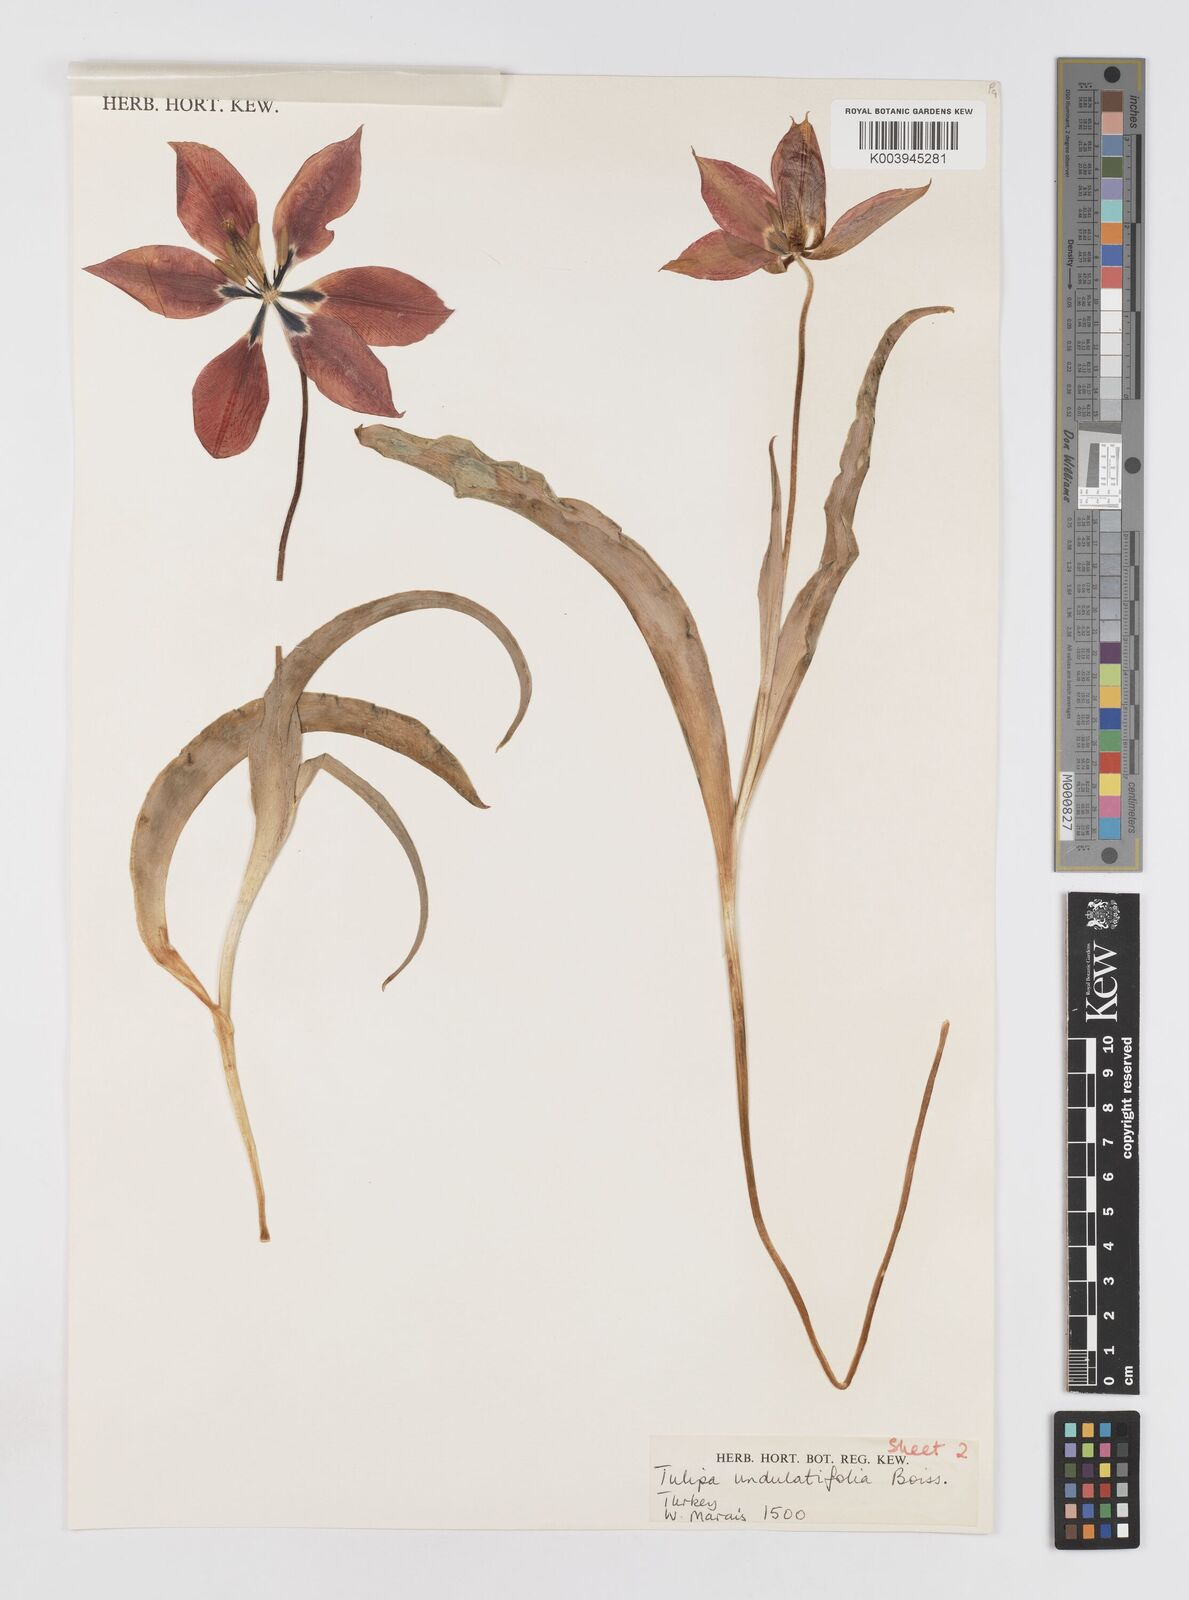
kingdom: Plantae
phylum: Tracheophyta
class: Liliopsida
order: Liliales
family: Liliaceae
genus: Tulipa
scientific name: Tulipa undulatifolia
